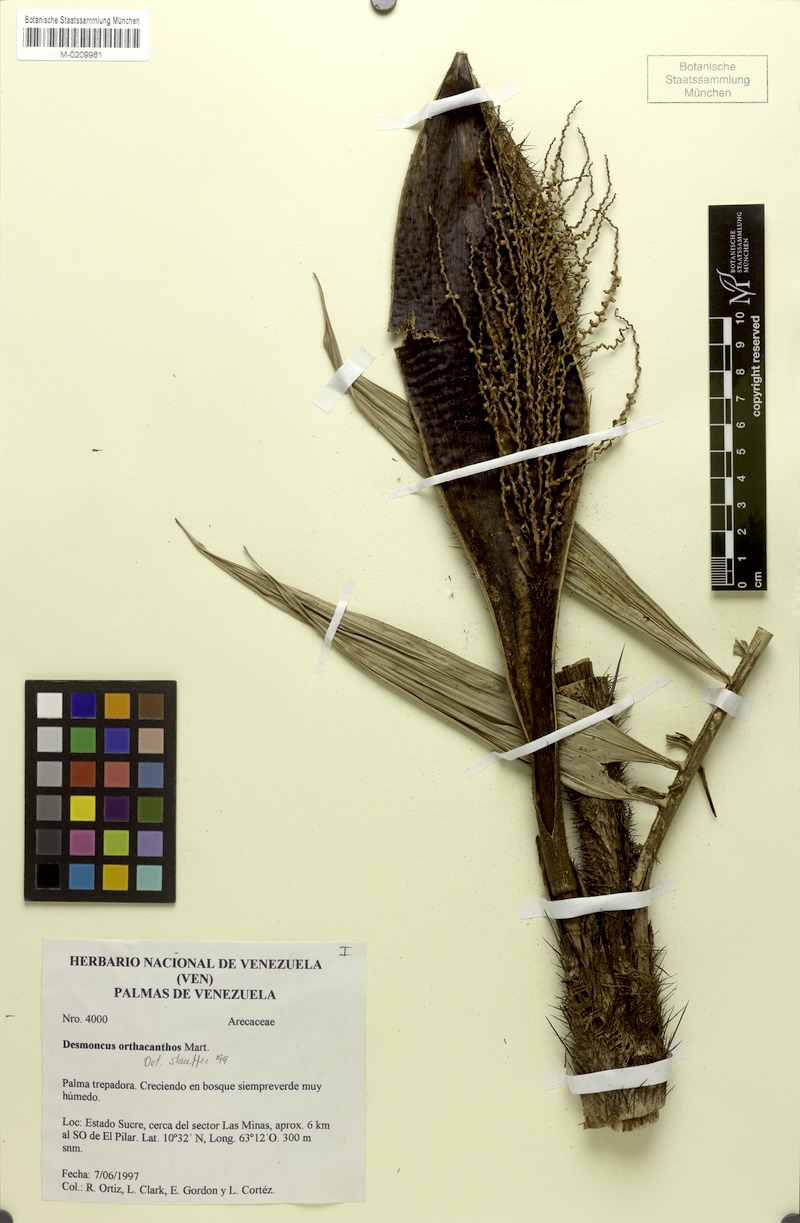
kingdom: Plantae
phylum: Tracheophyta
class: Liliopsida
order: Arecales
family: Arecaceae
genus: Desmoncus
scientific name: Desmoncus orthacanthos
